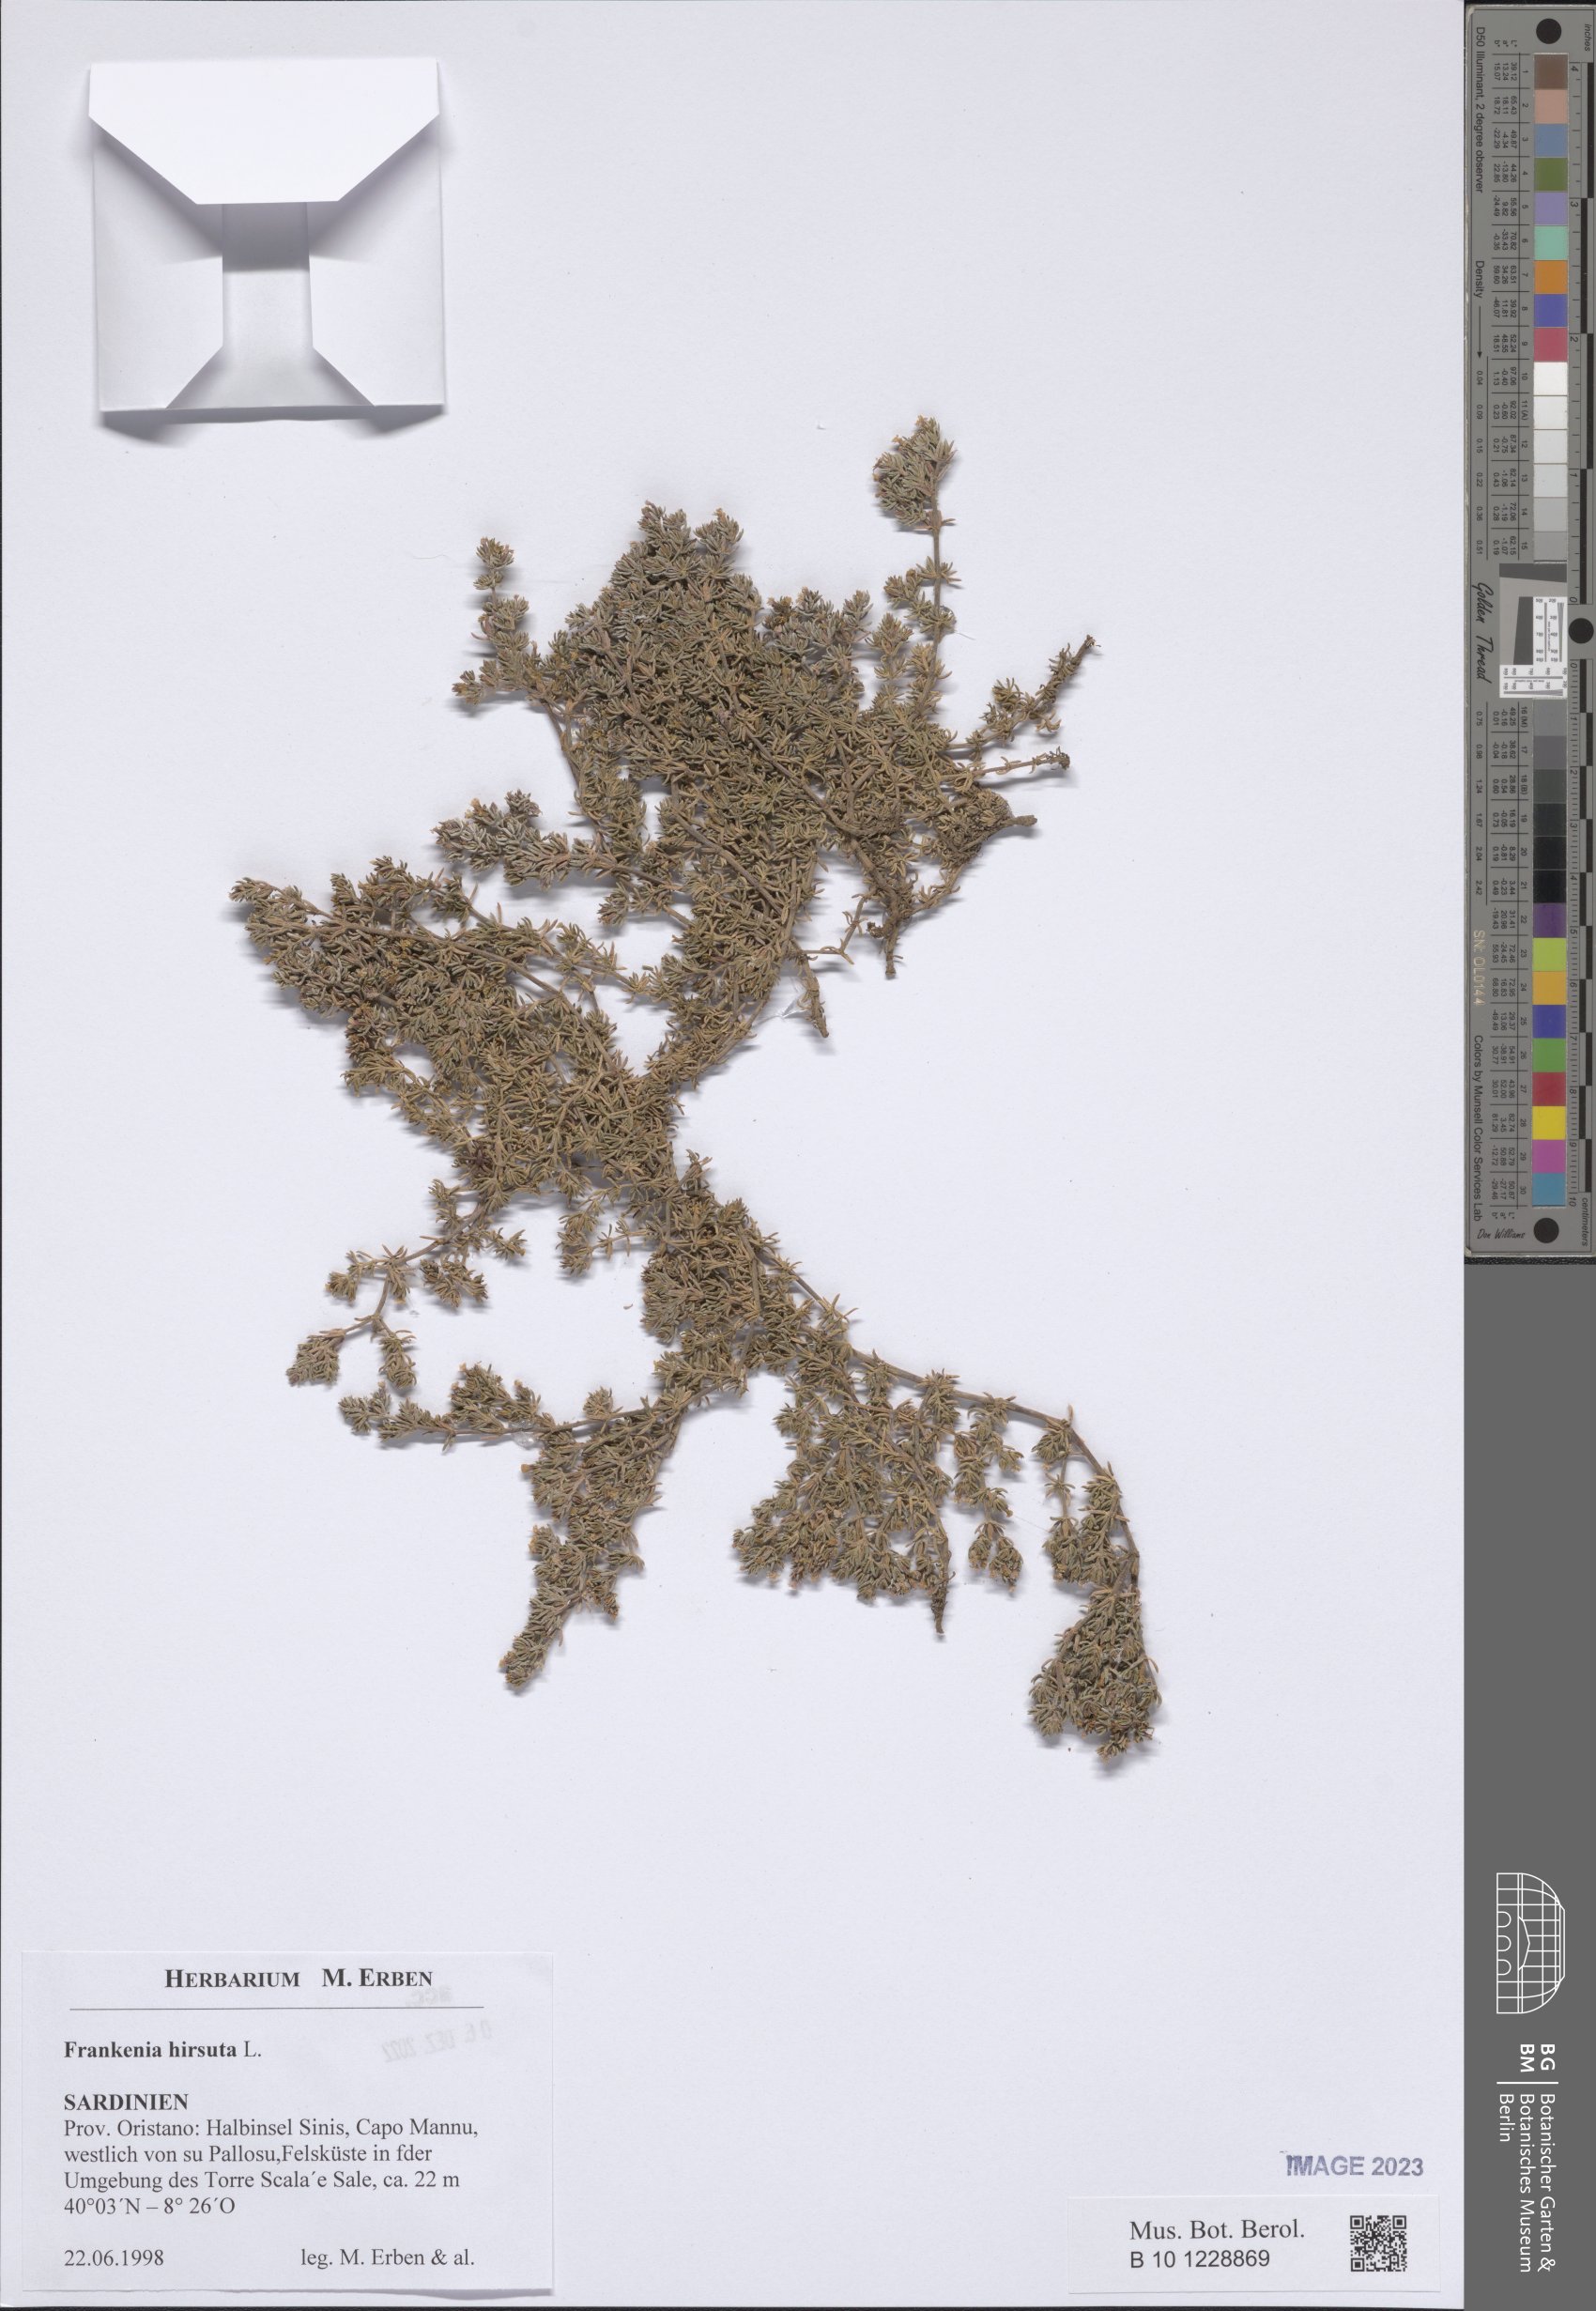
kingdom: Plantae
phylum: Tracheophyta
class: Magnoliopsida
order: Caryophyllales
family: Frankeniaceae
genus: Frankenia
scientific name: Frankenia hirsuta
